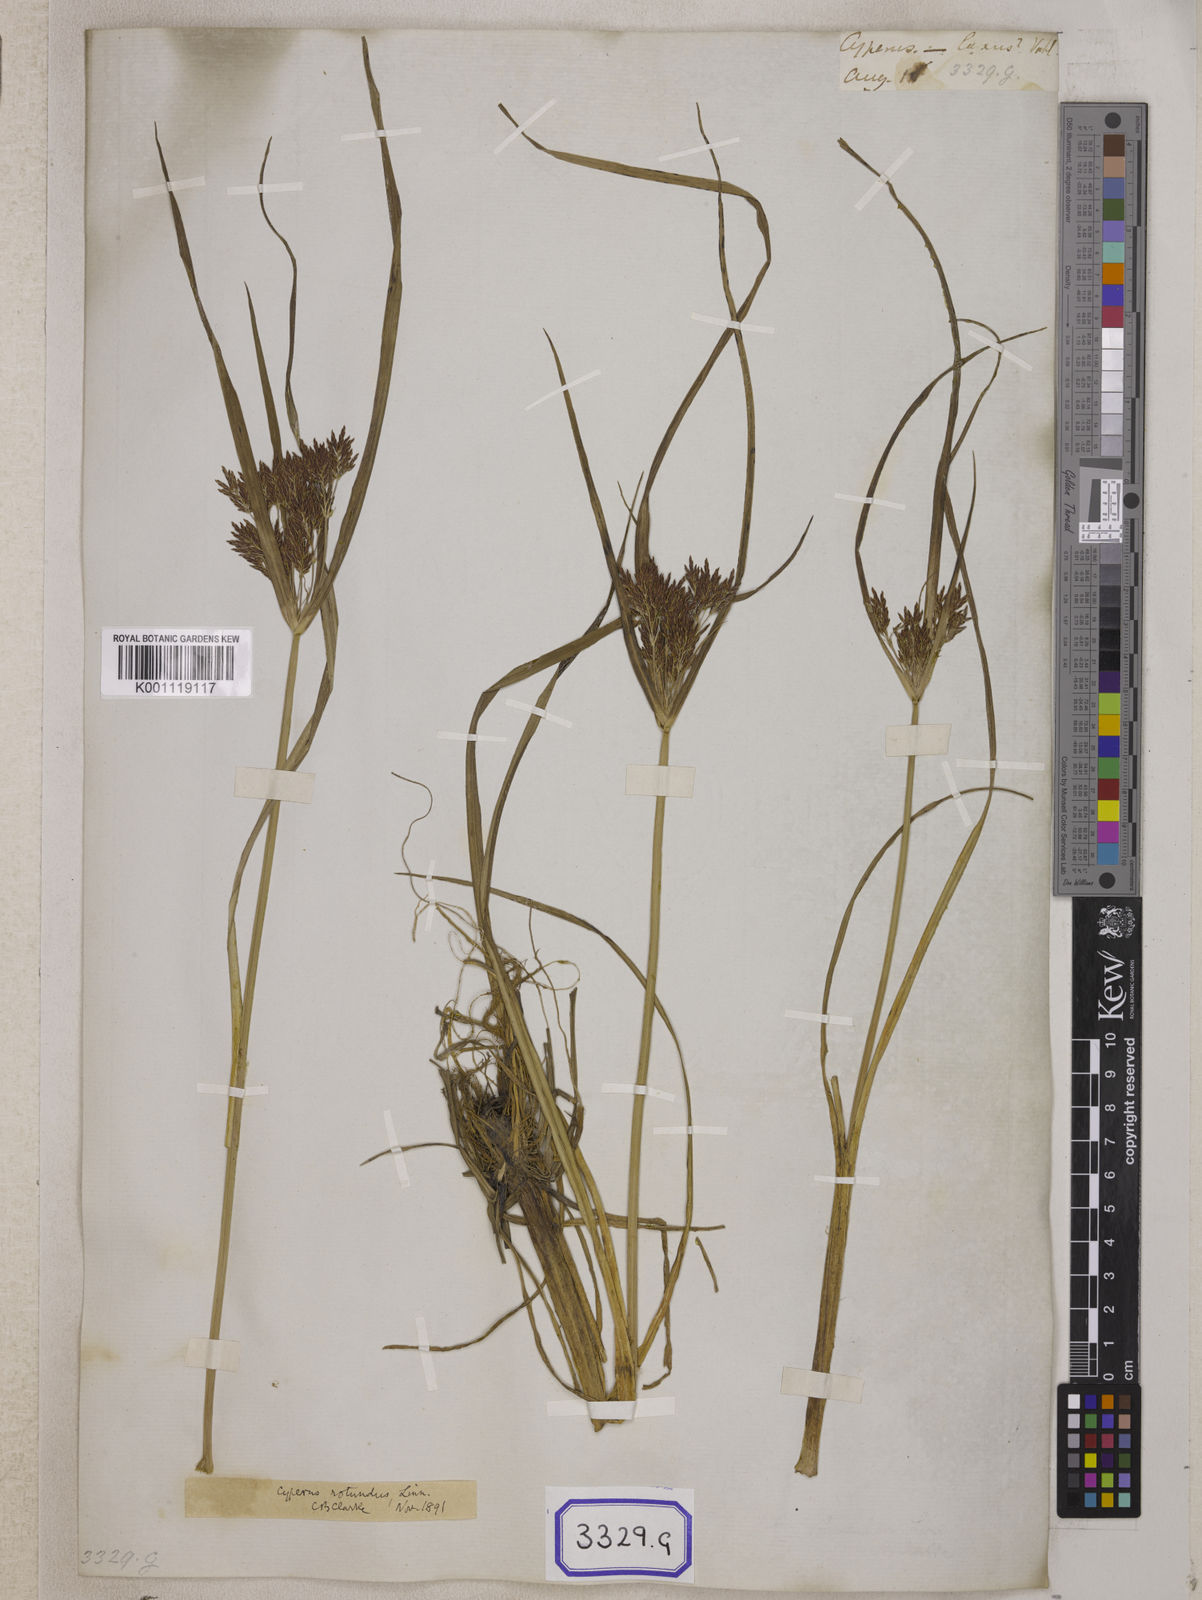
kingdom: Plantae
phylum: Tracheophyta
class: Liliopsida
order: Poales
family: Cyperaceae
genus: Cyperus
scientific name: Cyperus
